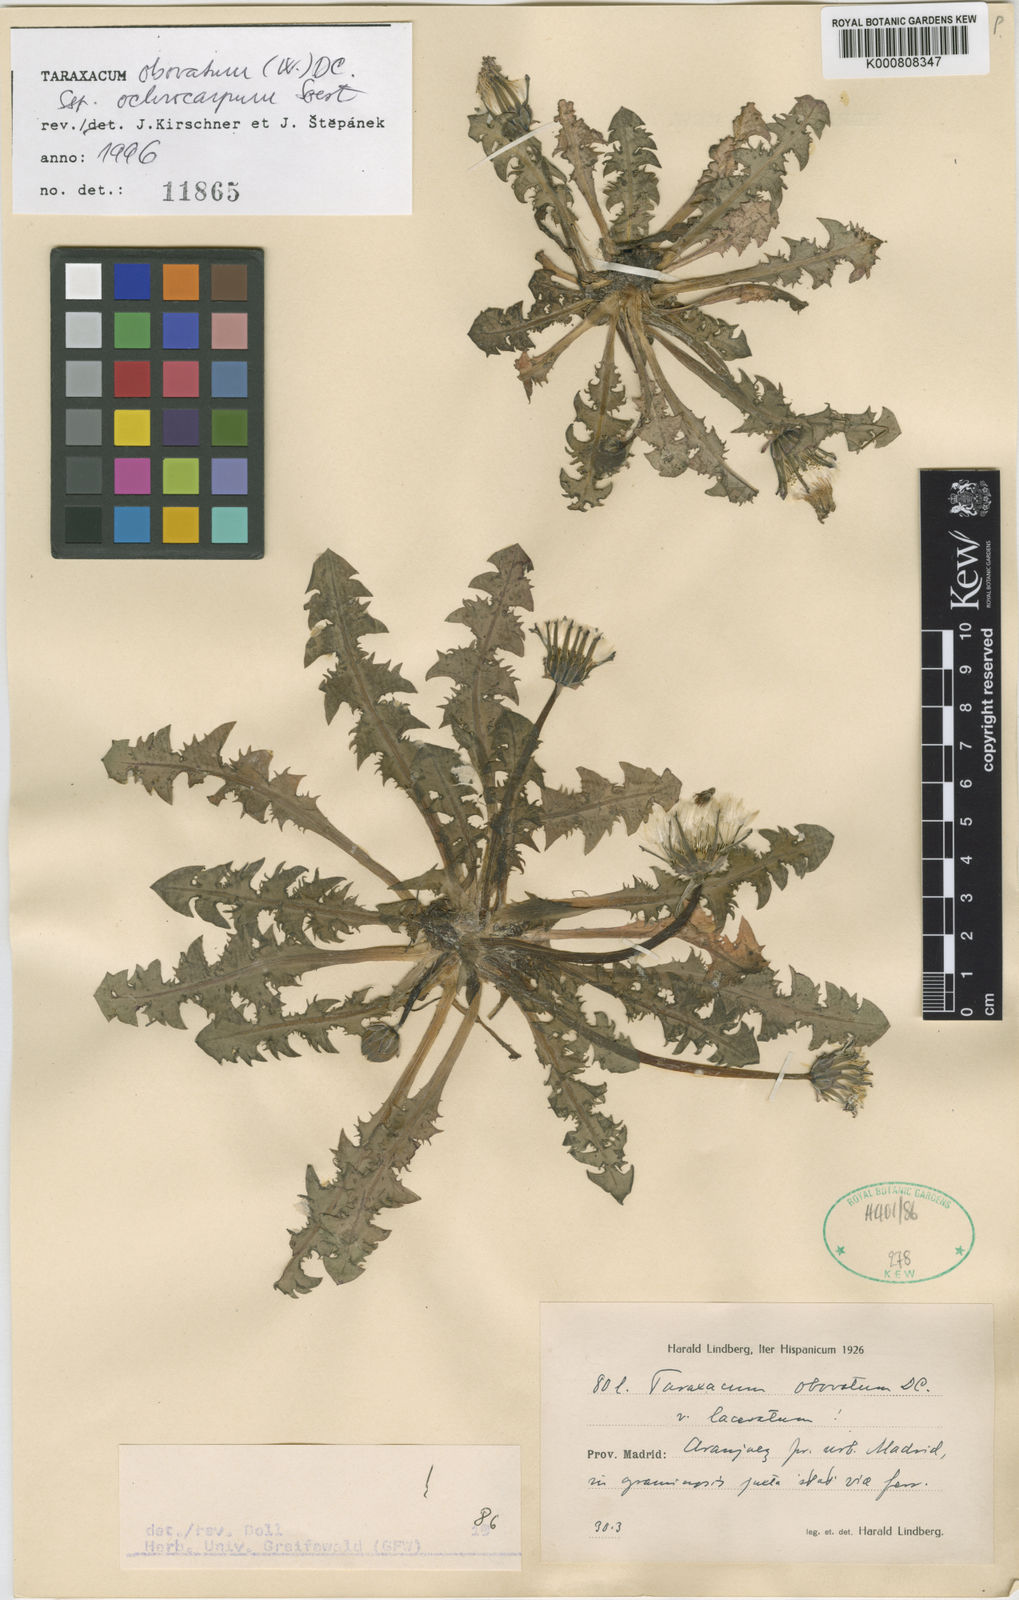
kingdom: Plantae
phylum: Tracheophyta
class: Magnoliopsida
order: Asterales
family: Asteraceae
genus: Taraxacum
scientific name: Taraxacum obovatum
